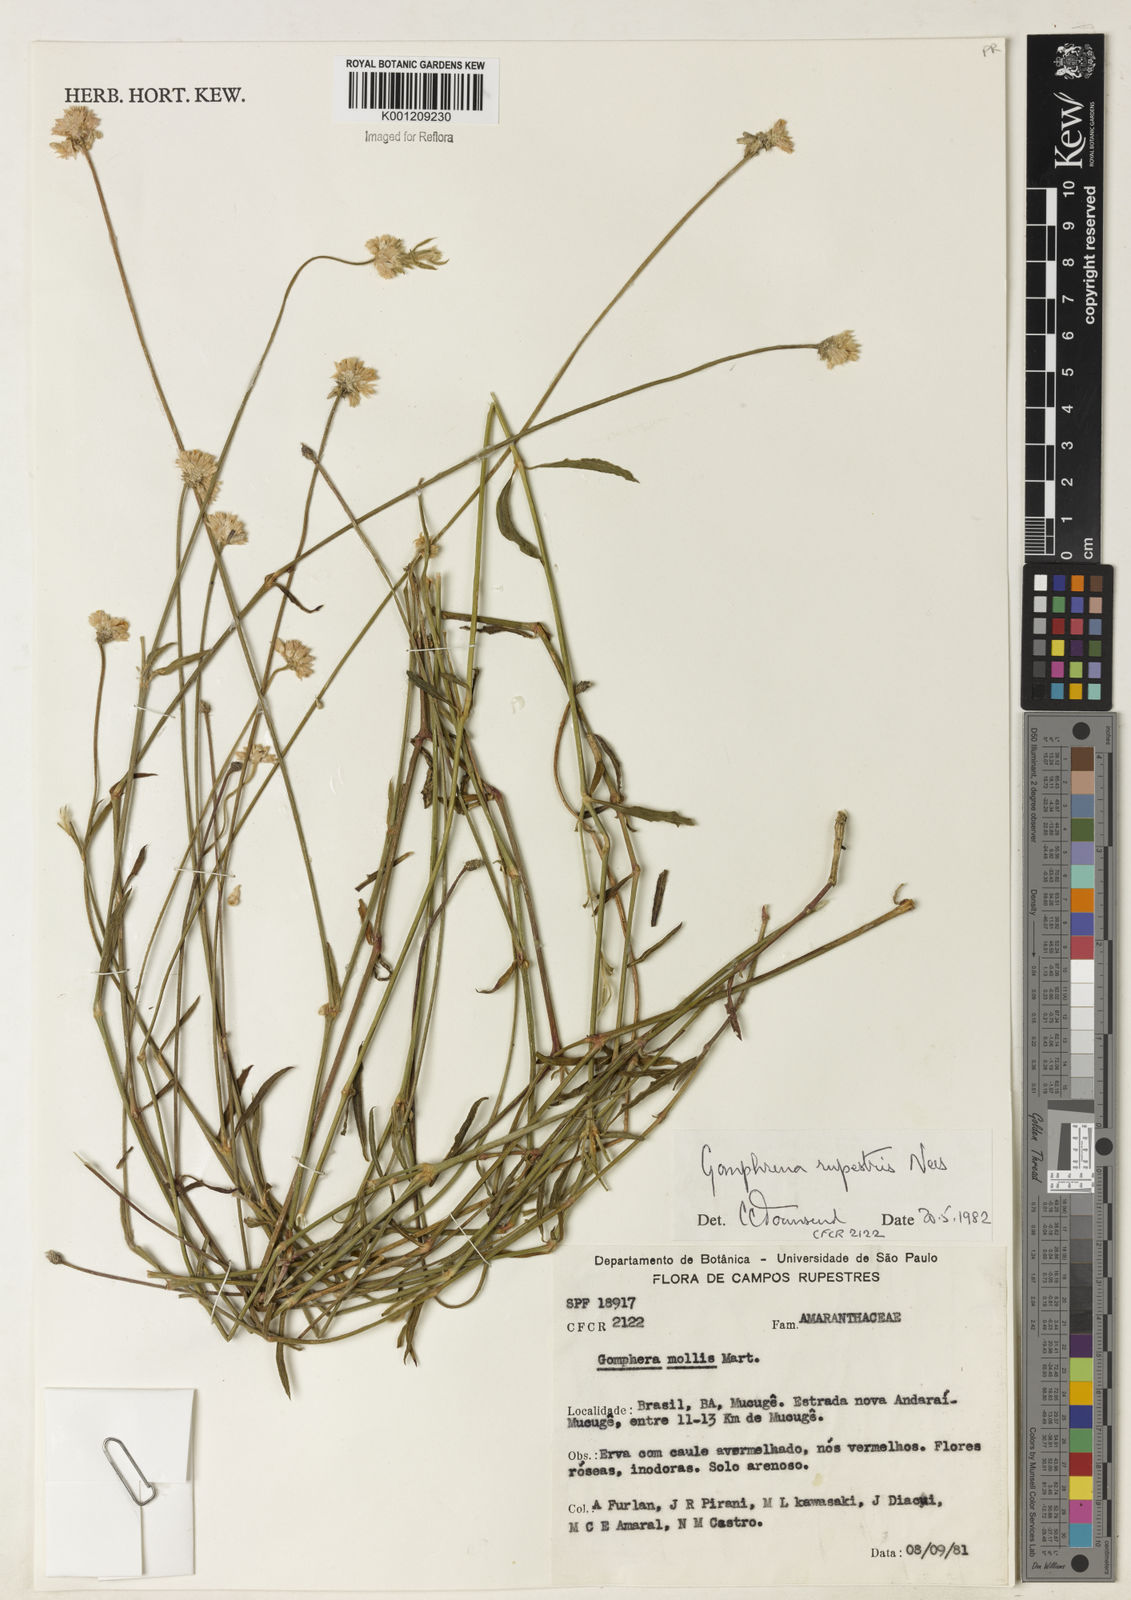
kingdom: Plantae
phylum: Tracheophyta
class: Magnoliopsida
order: Caryophyllales
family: Amaranthaceae
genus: Gomphrena
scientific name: Gomphrena rupestris
